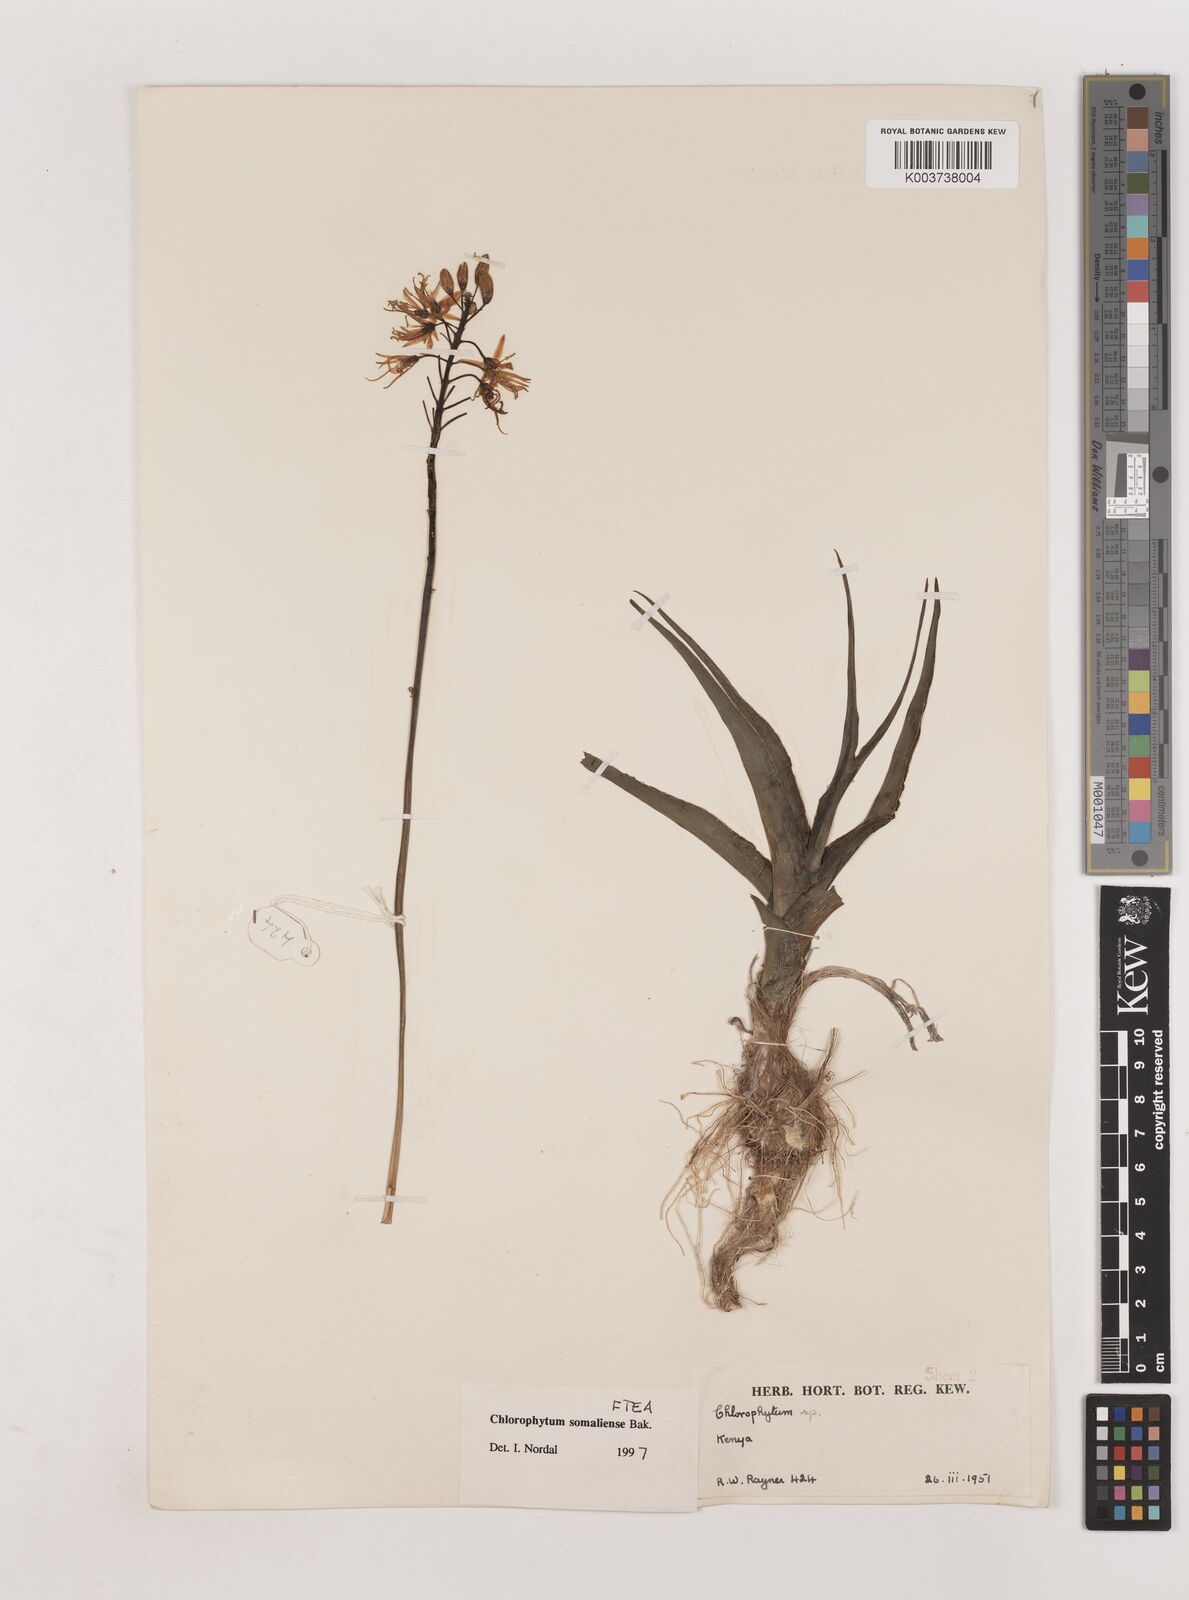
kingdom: Plantae
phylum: Tracheophyta
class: Liliopsida
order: Asparagales
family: Asparagaceae
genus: Chlorophytum
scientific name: Chlorophytum somaliense
